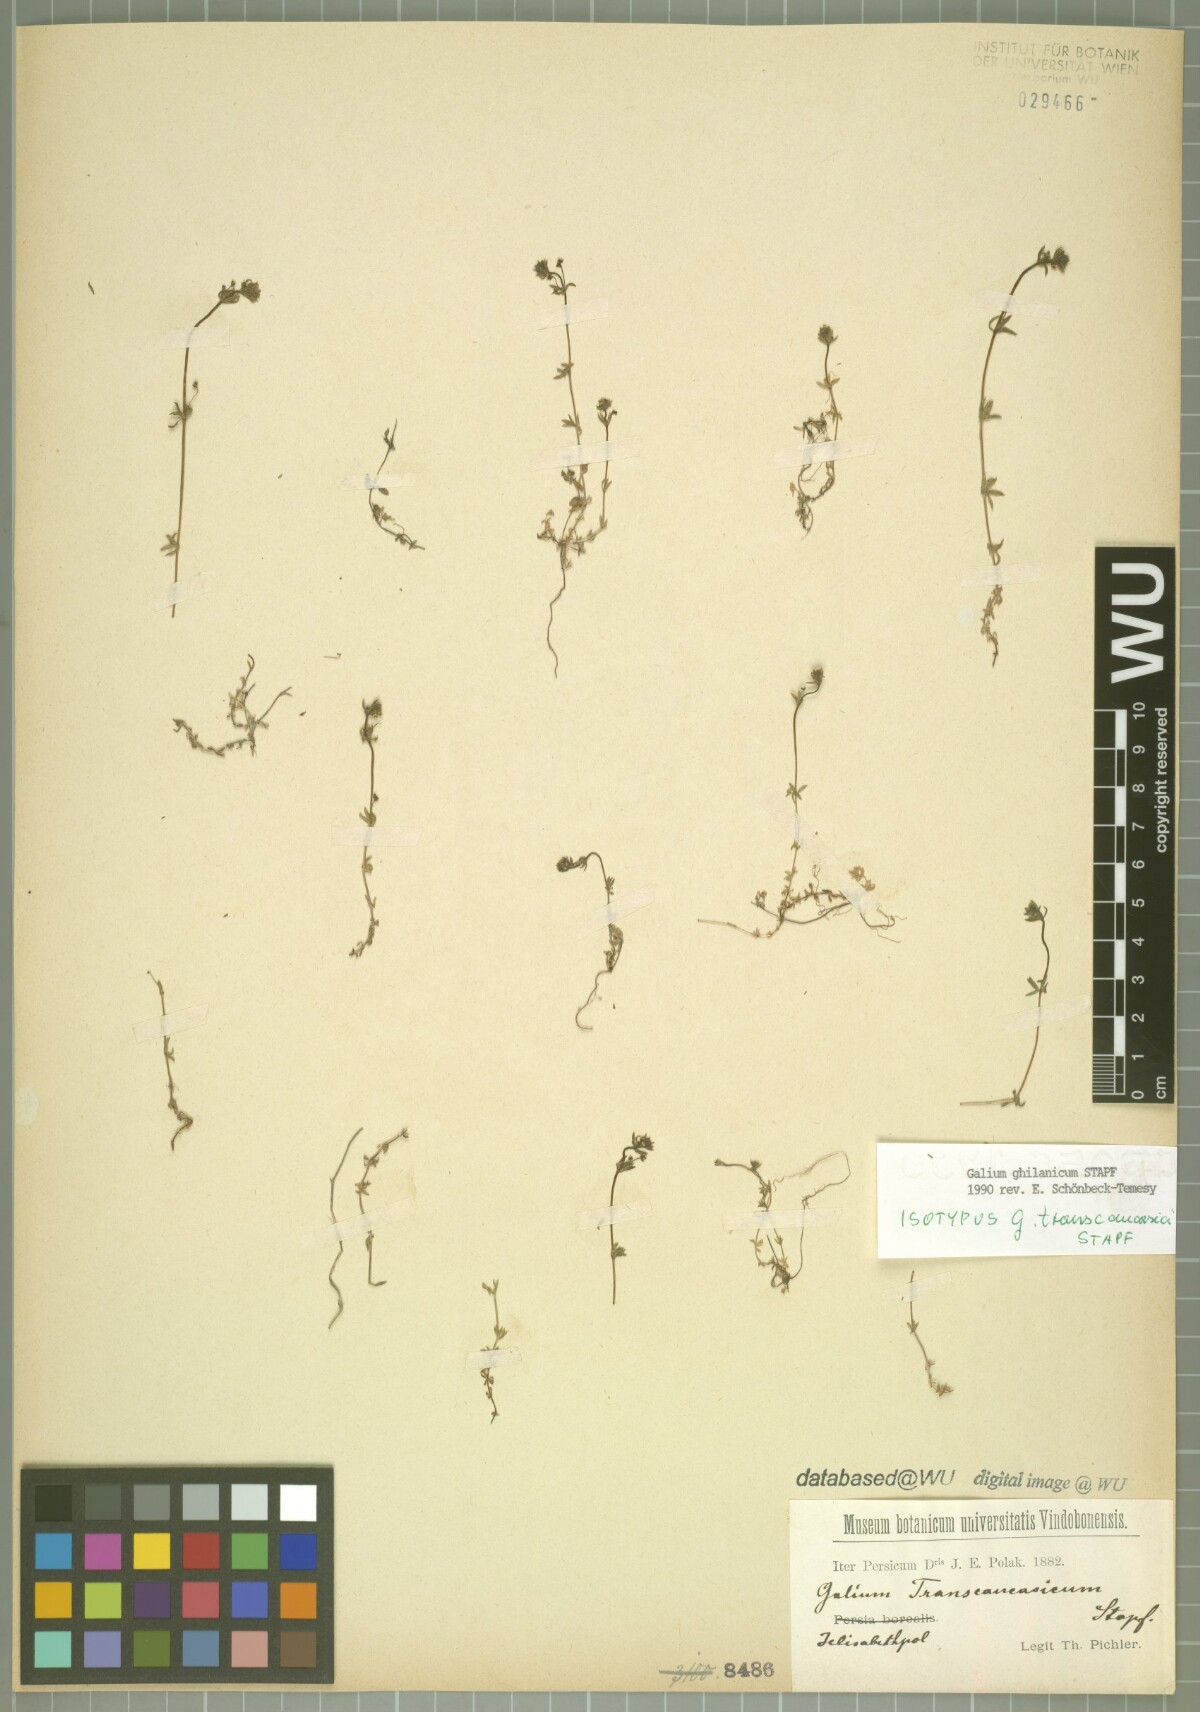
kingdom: Plantae
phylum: Tracheophyta
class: Magnoliopsida
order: Gentianales
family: Rubiaceae
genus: Galium
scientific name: Galium ghilanicum
